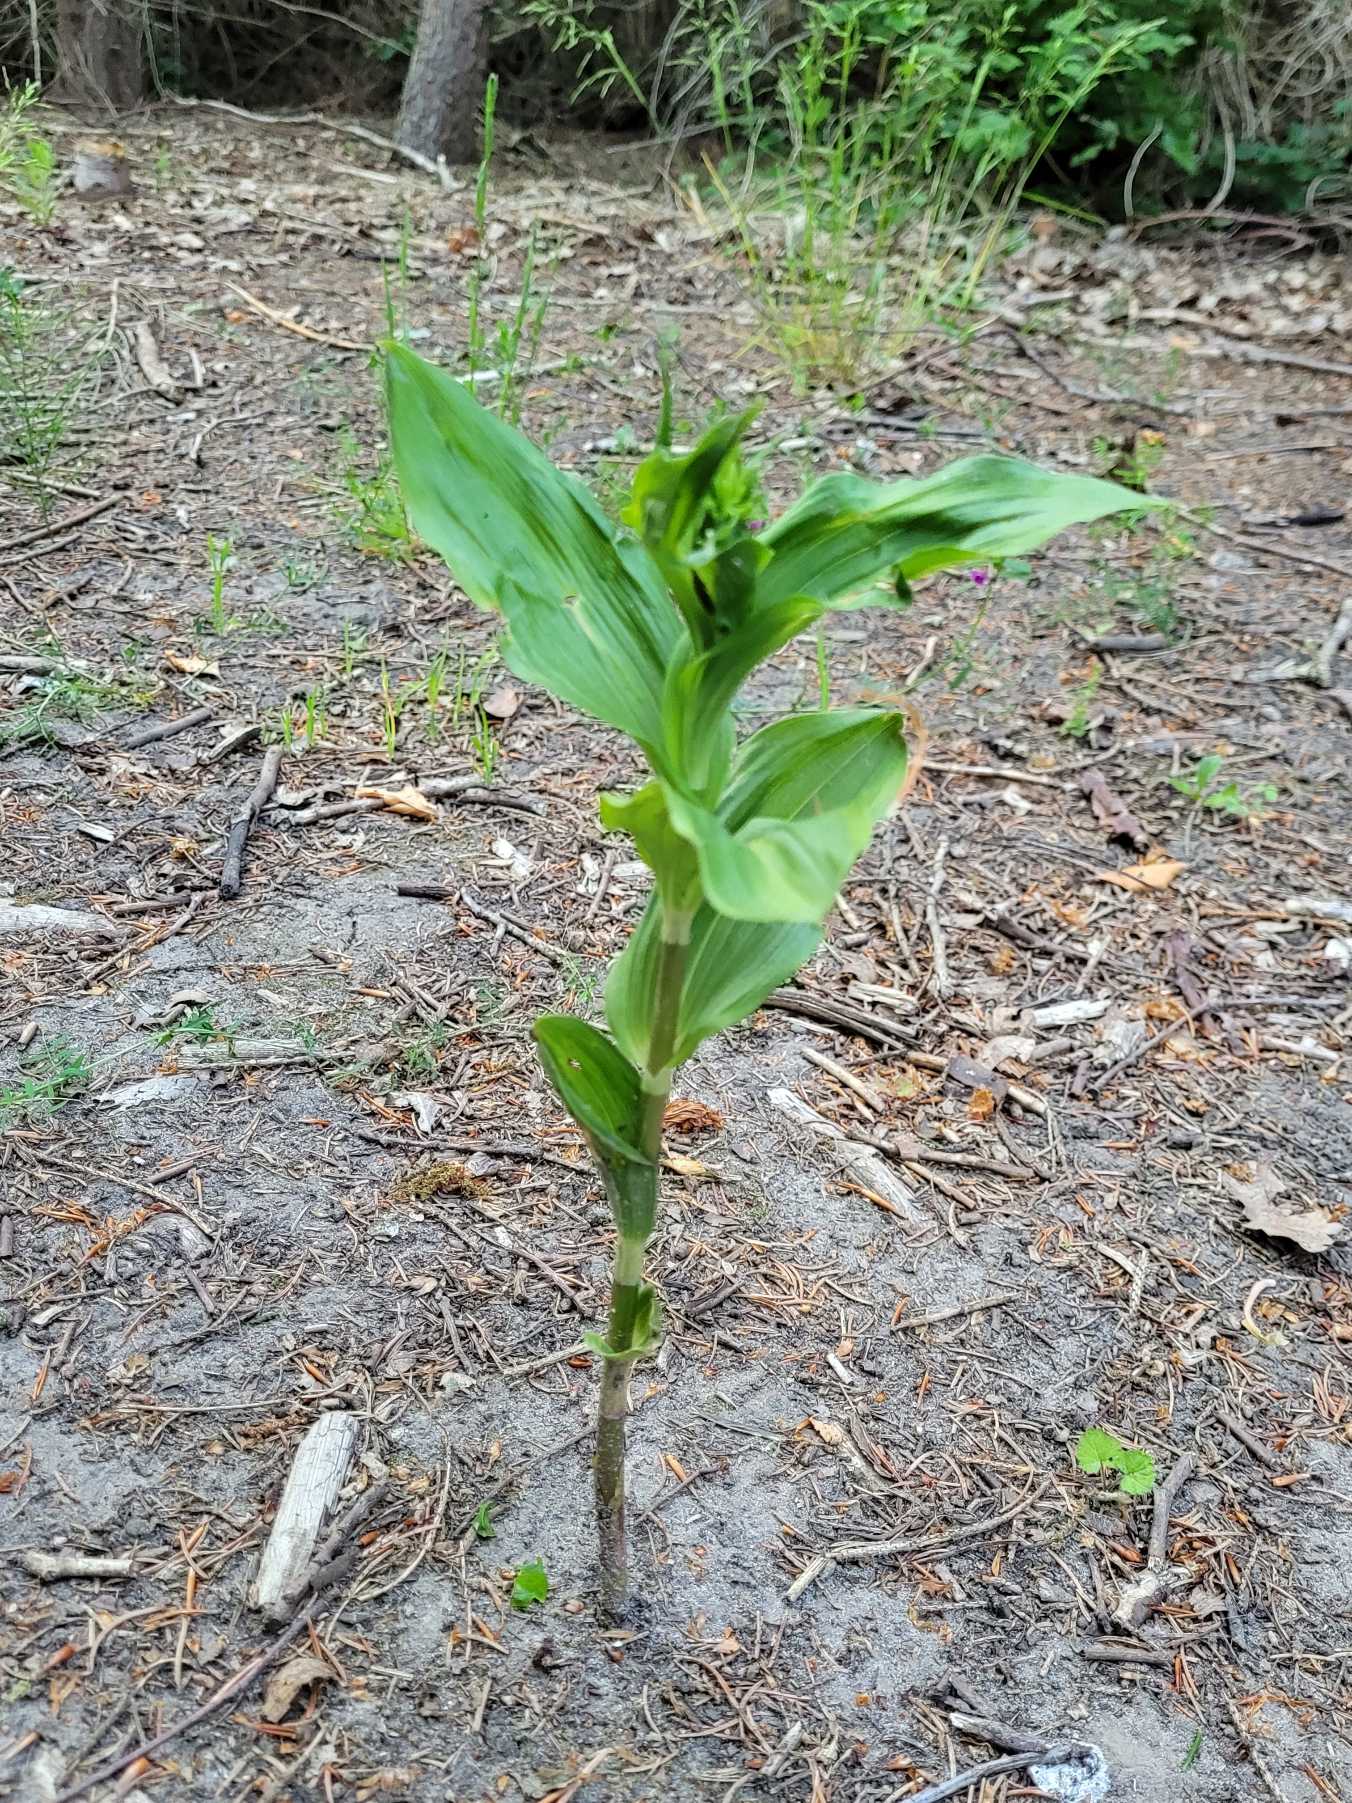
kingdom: Plantae
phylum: Tracheophyta
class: Liliopsida
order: Asparagales
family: Orchidaceae
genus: Epipactis
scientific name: Epipactis helleborine
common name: Skov-hullæbe
